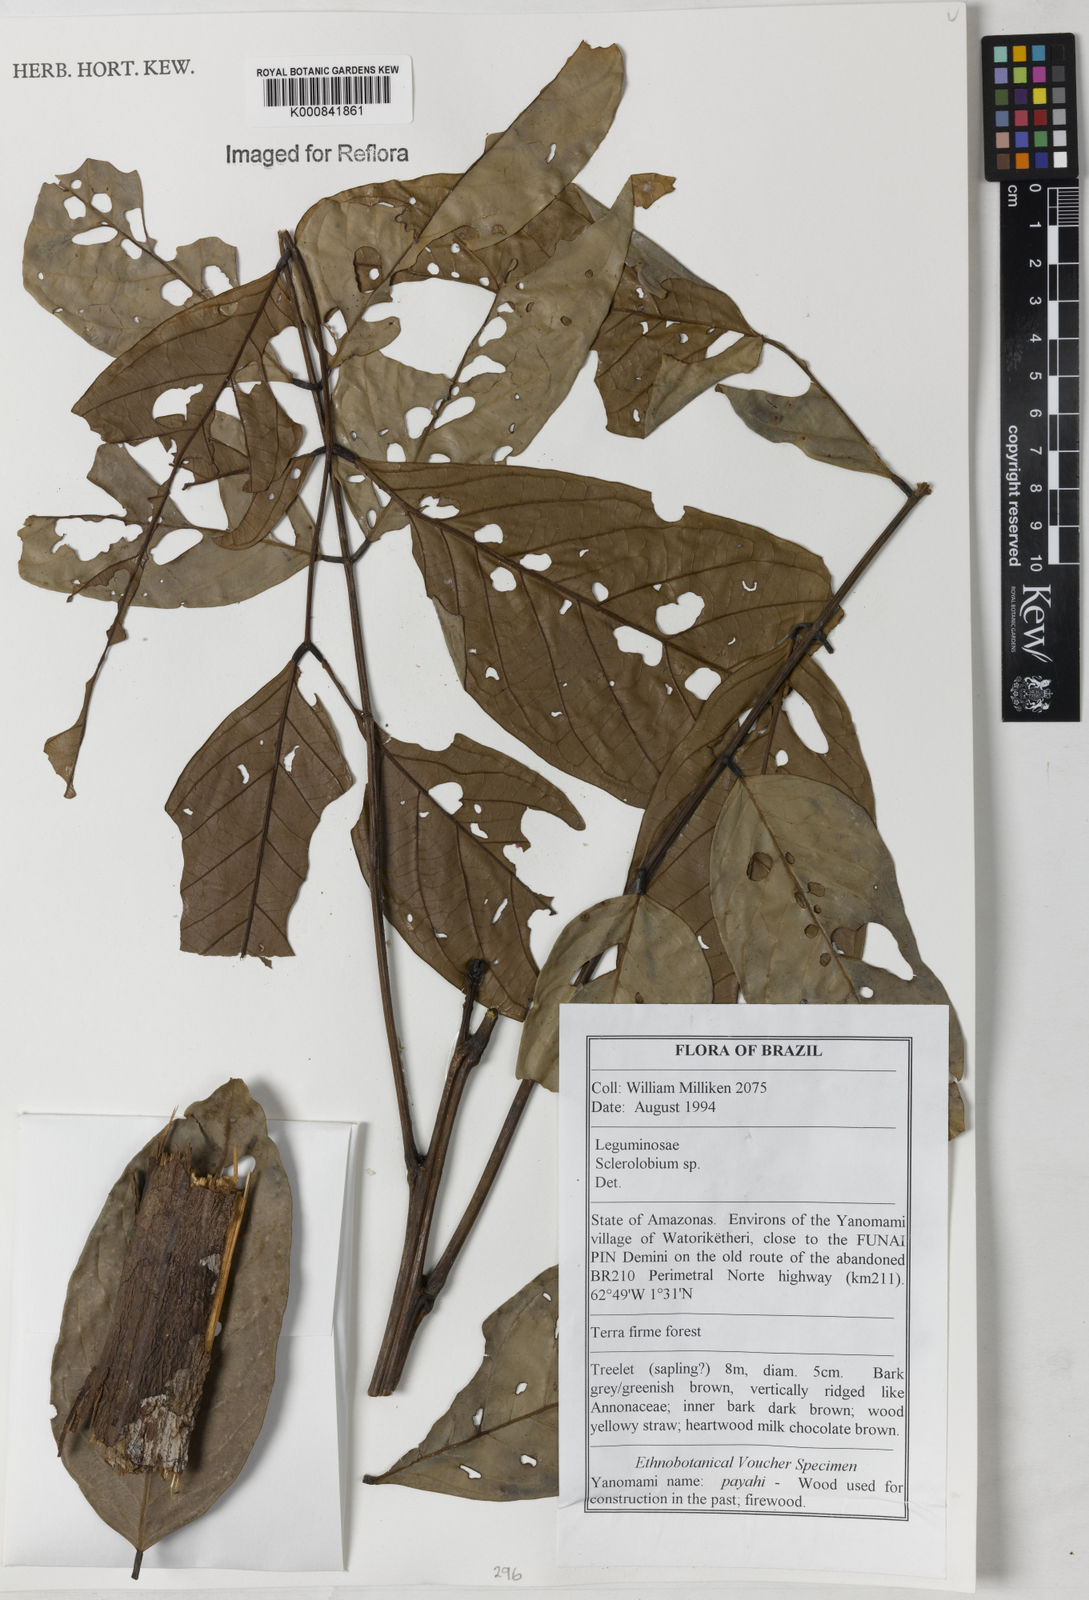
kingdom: Plantae
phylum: Tracheophyta
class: Magnoliopsida
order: Fabales
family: Fabaceae
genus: Tachigali
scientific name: Tachigali
